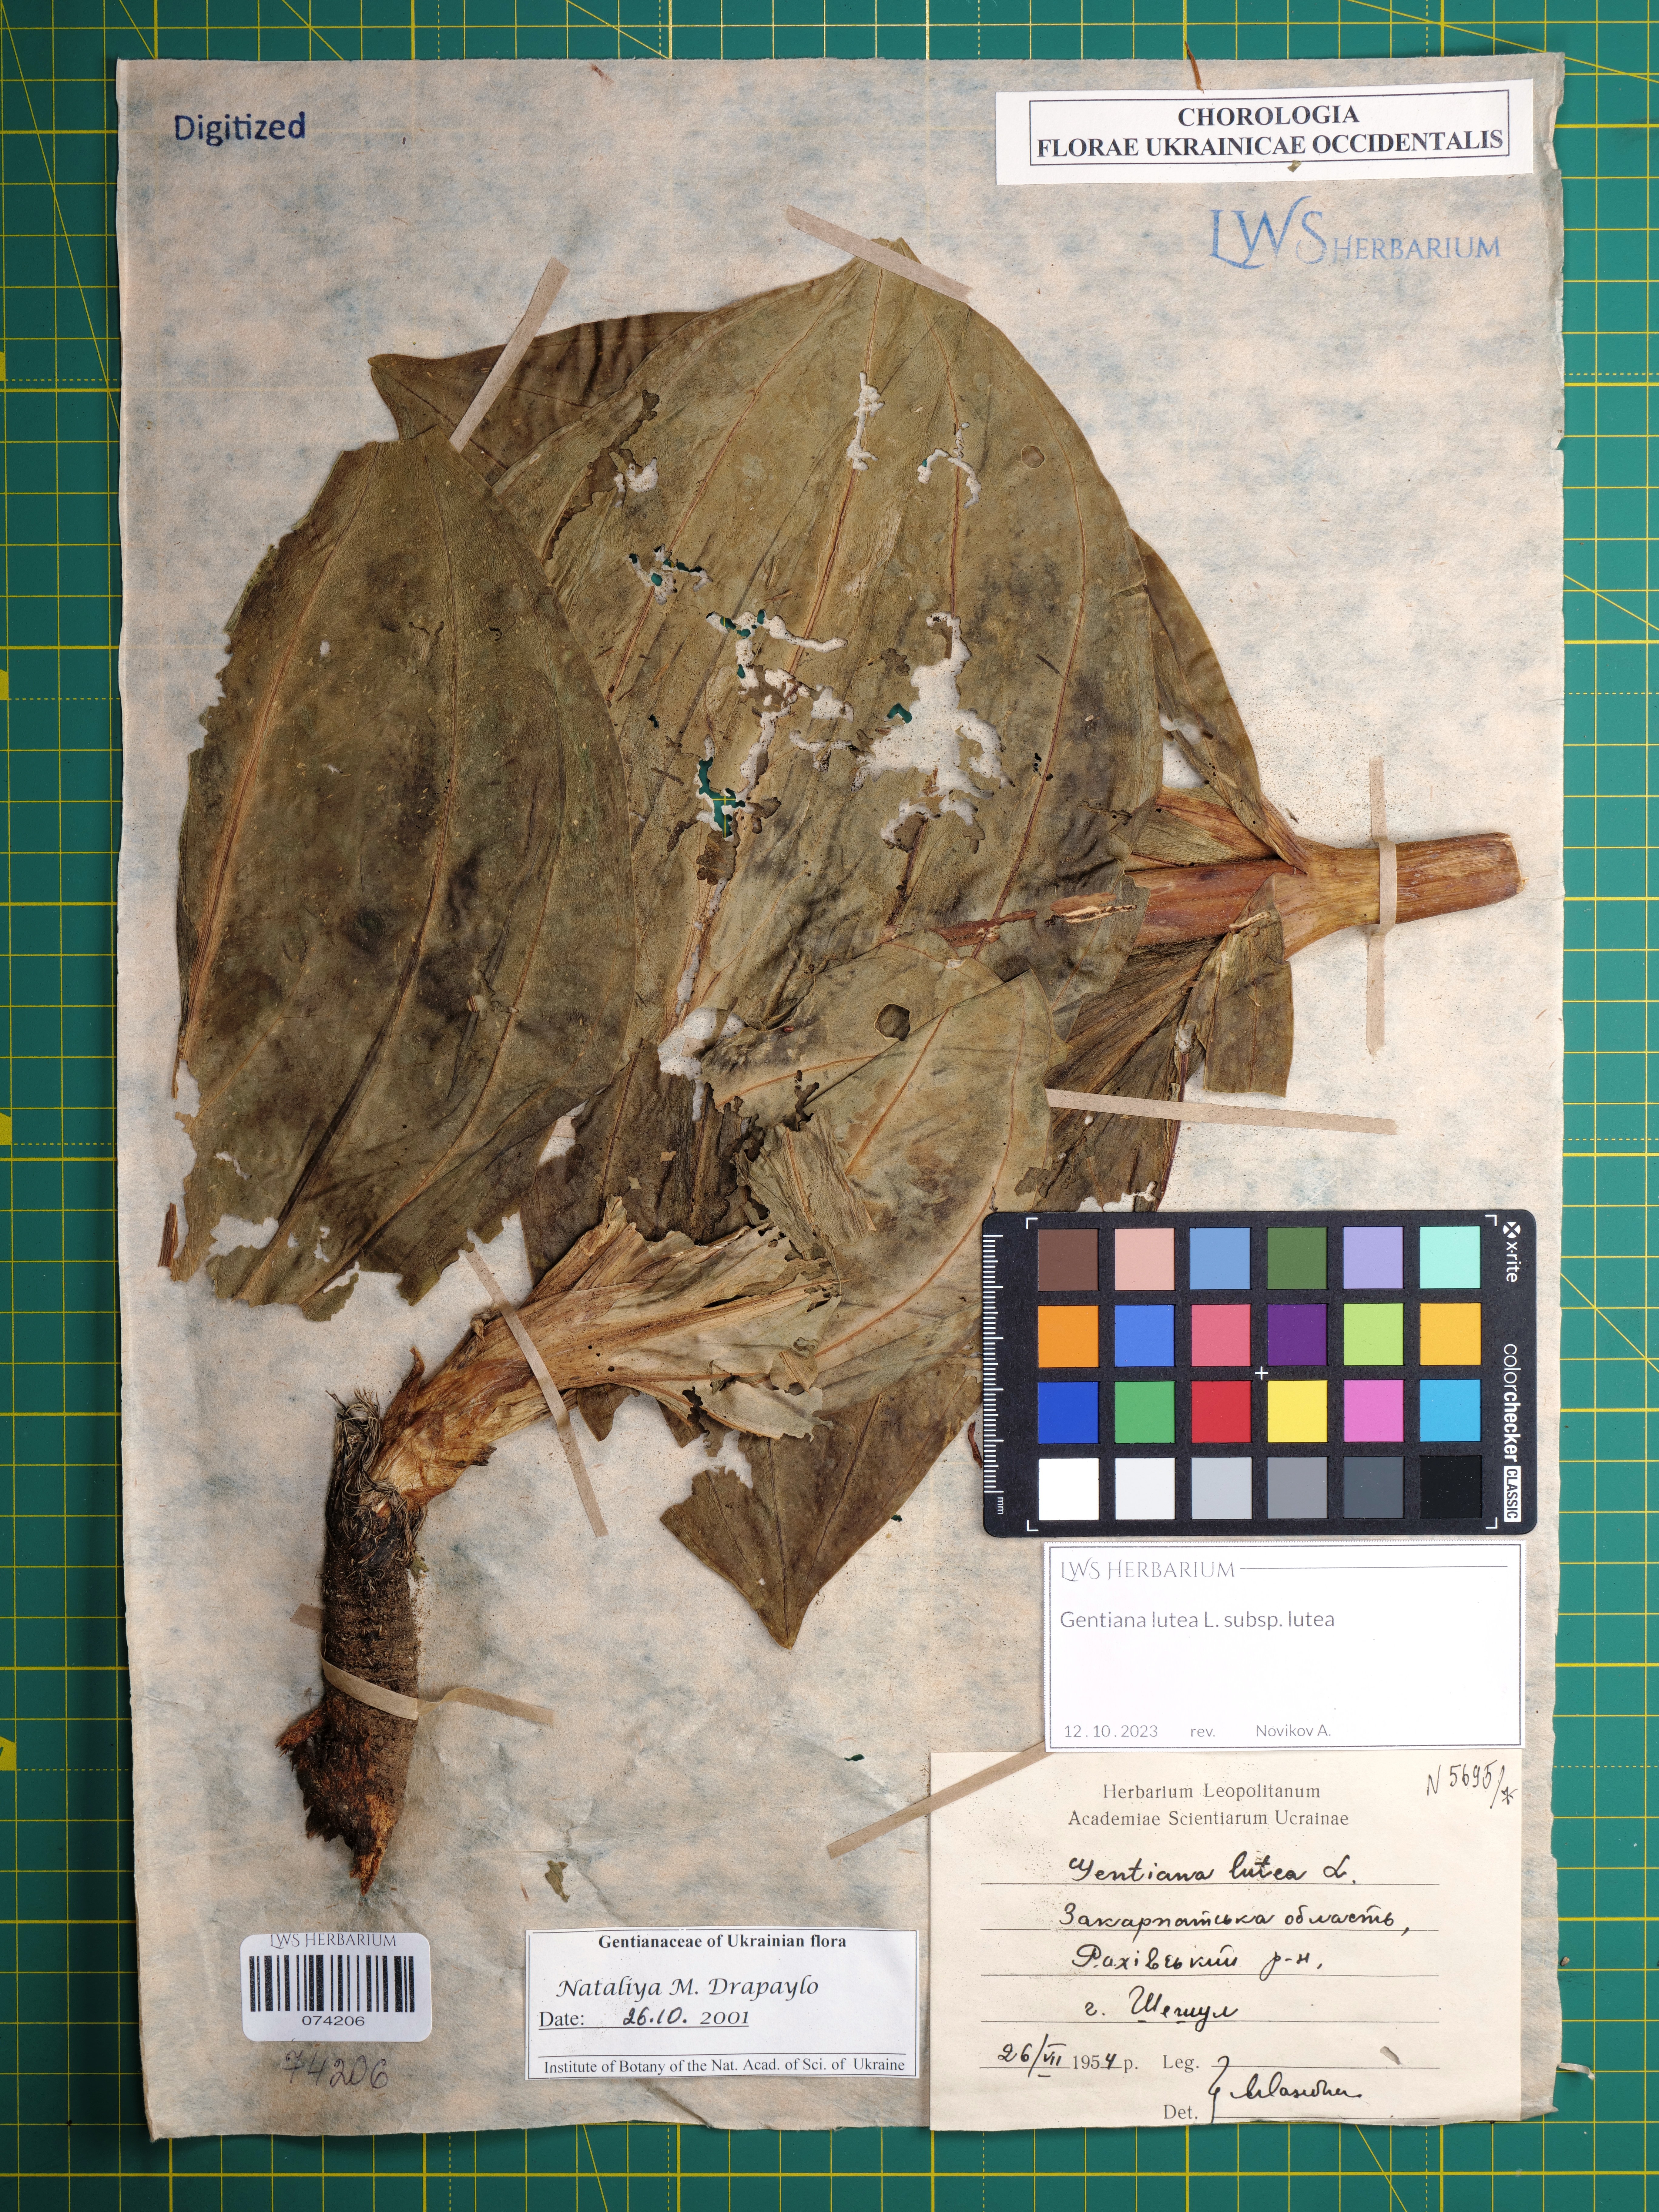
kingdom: Plantae
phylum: Tracheophyta
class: Magnoliopsida
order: Gentianales
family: Gentianaceae
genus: Gentiana
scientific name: Gentiana lutea
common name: Great yellow gentian
